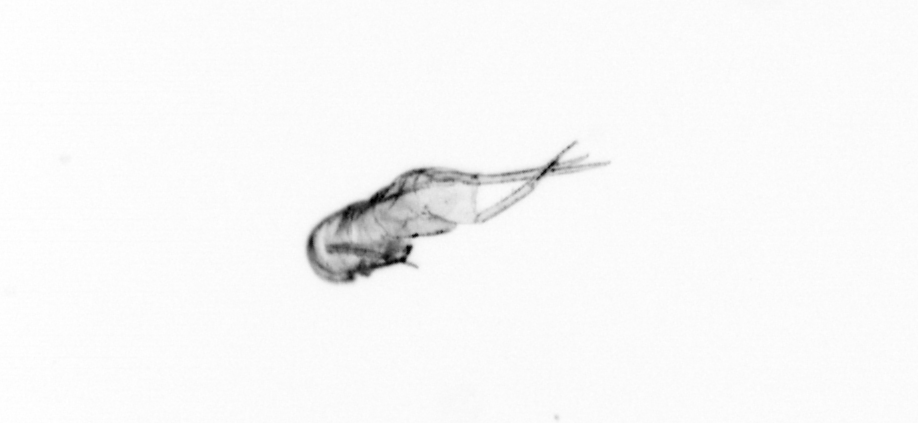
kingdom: Animalia
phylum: Arthropoda
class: Maxillopoda
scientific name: Maxillopoda
